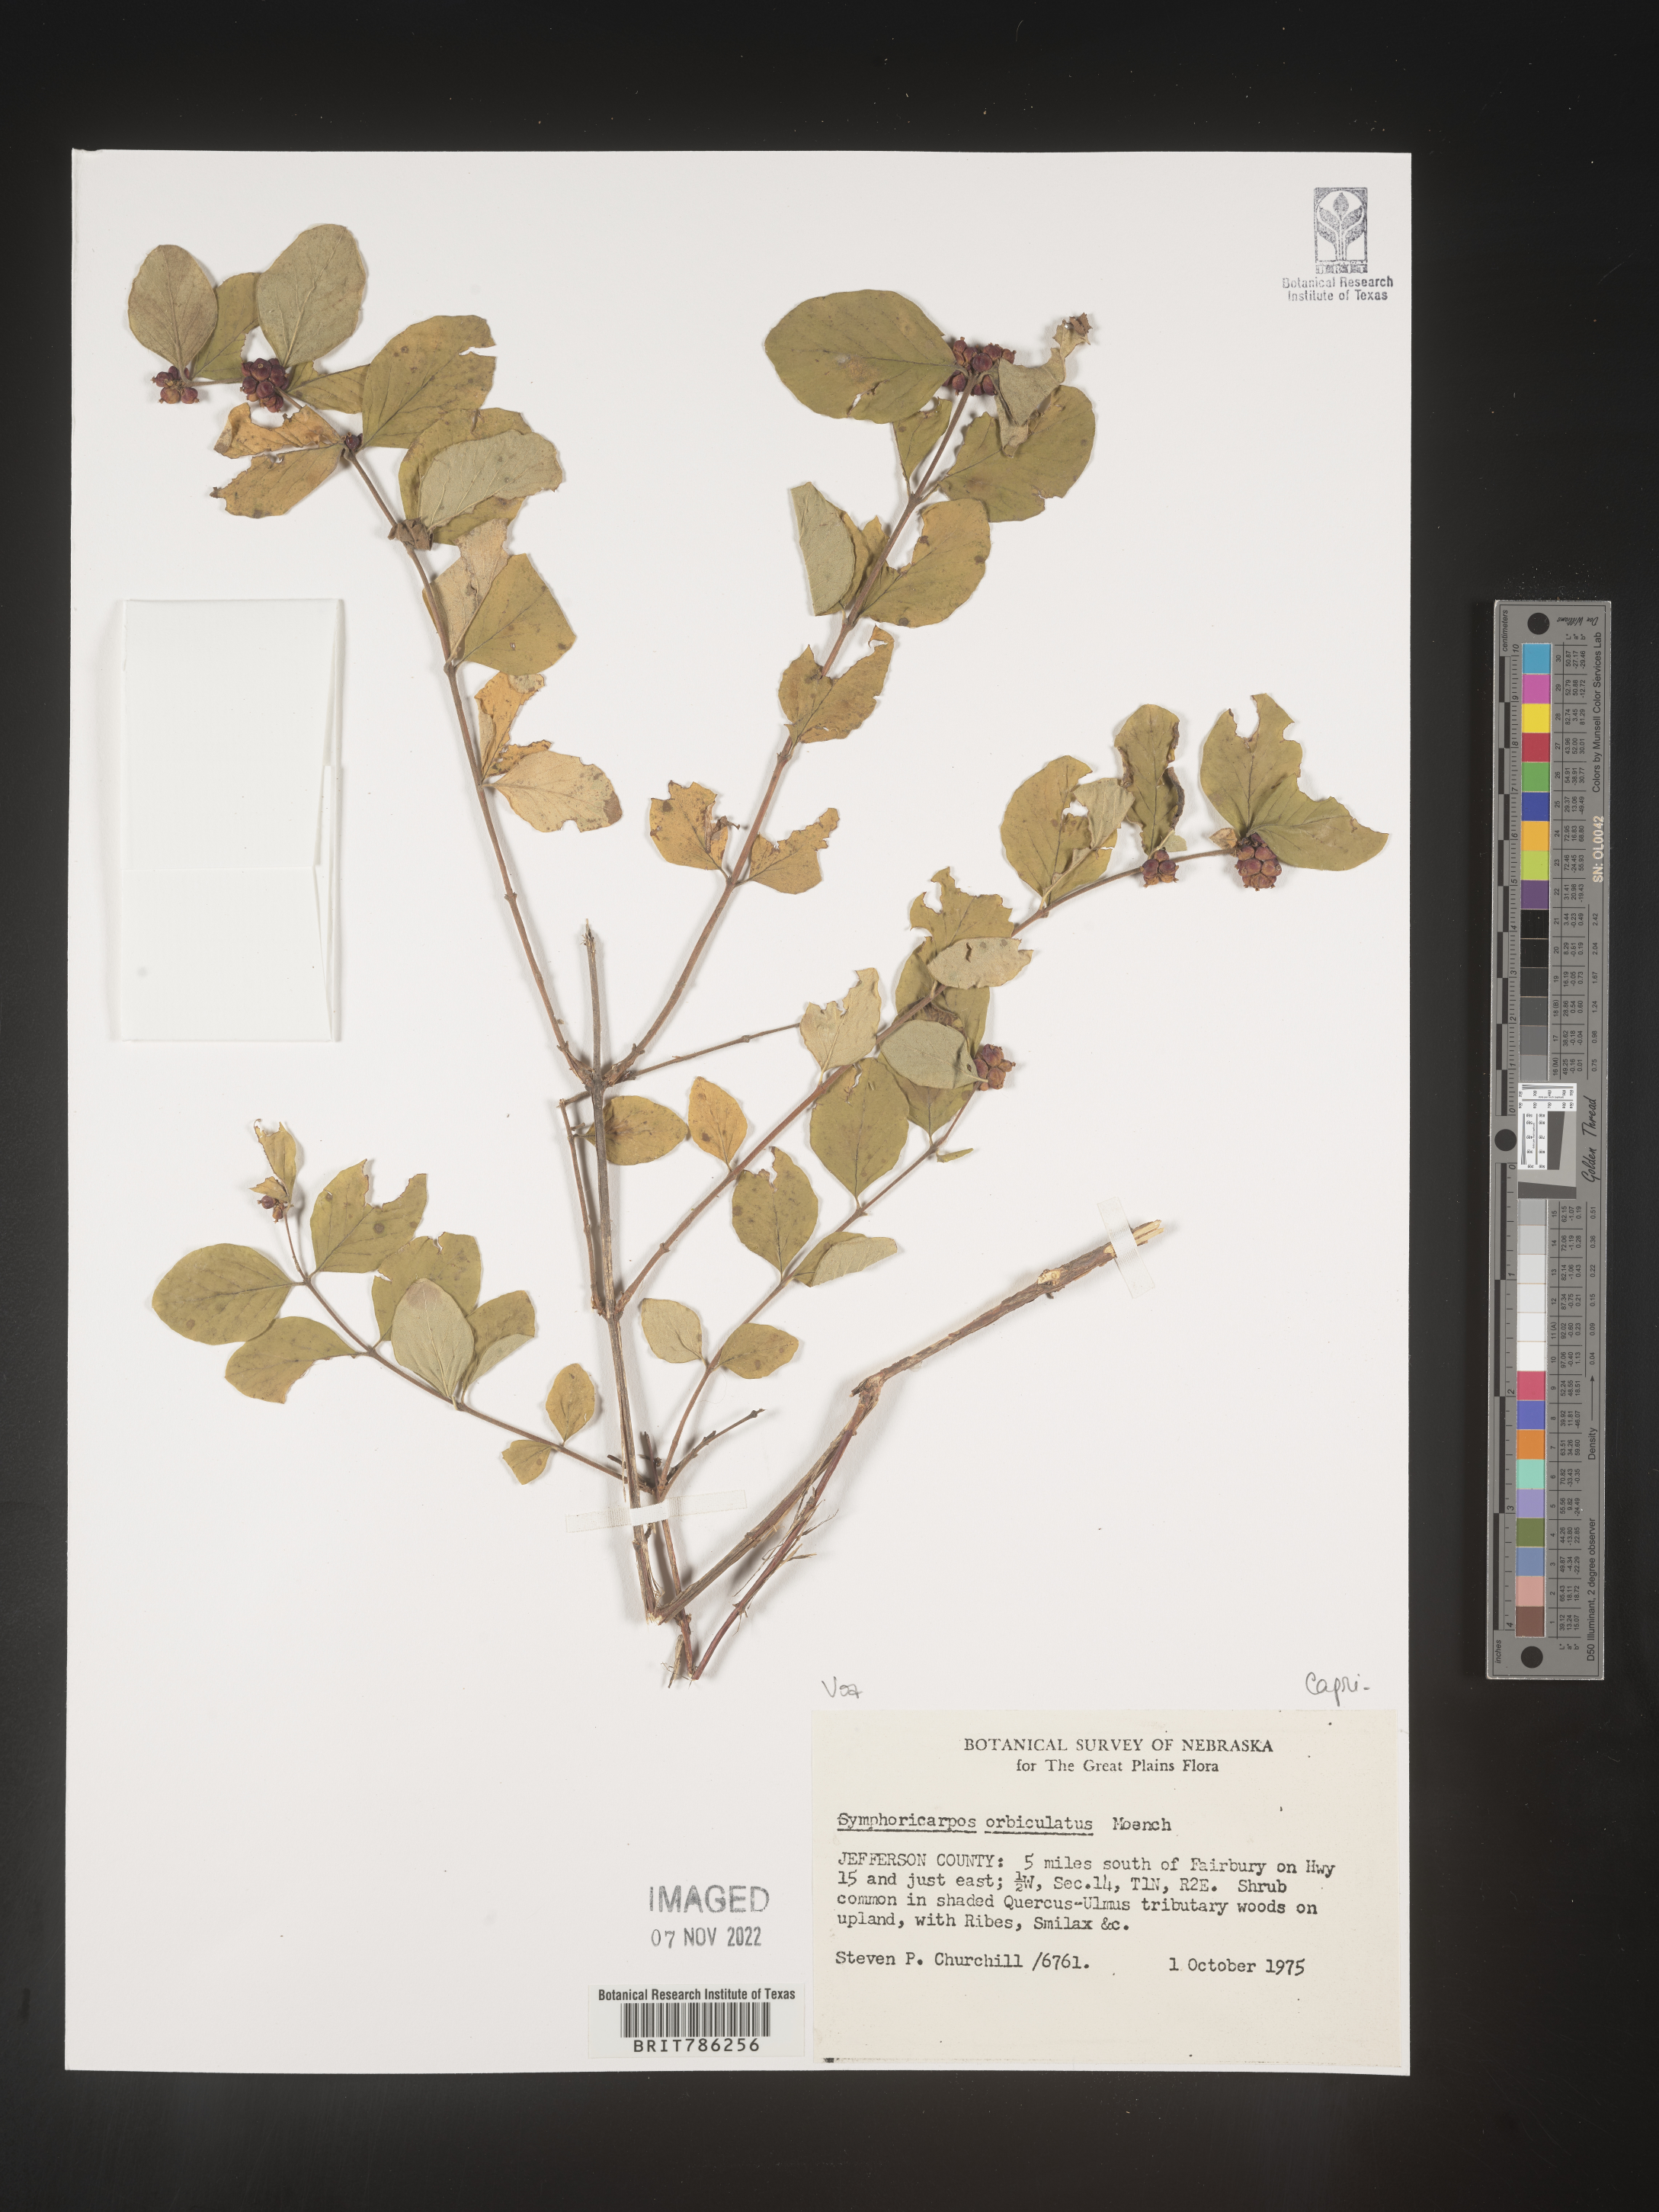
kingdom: Plantae
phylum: Tracheophyta
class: Magnoliopsida
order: Dipsacales
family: Caprifoliaceae
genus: Symphoricarpos
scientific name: Symphoricarpos orbiculatus
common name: Coralberry
